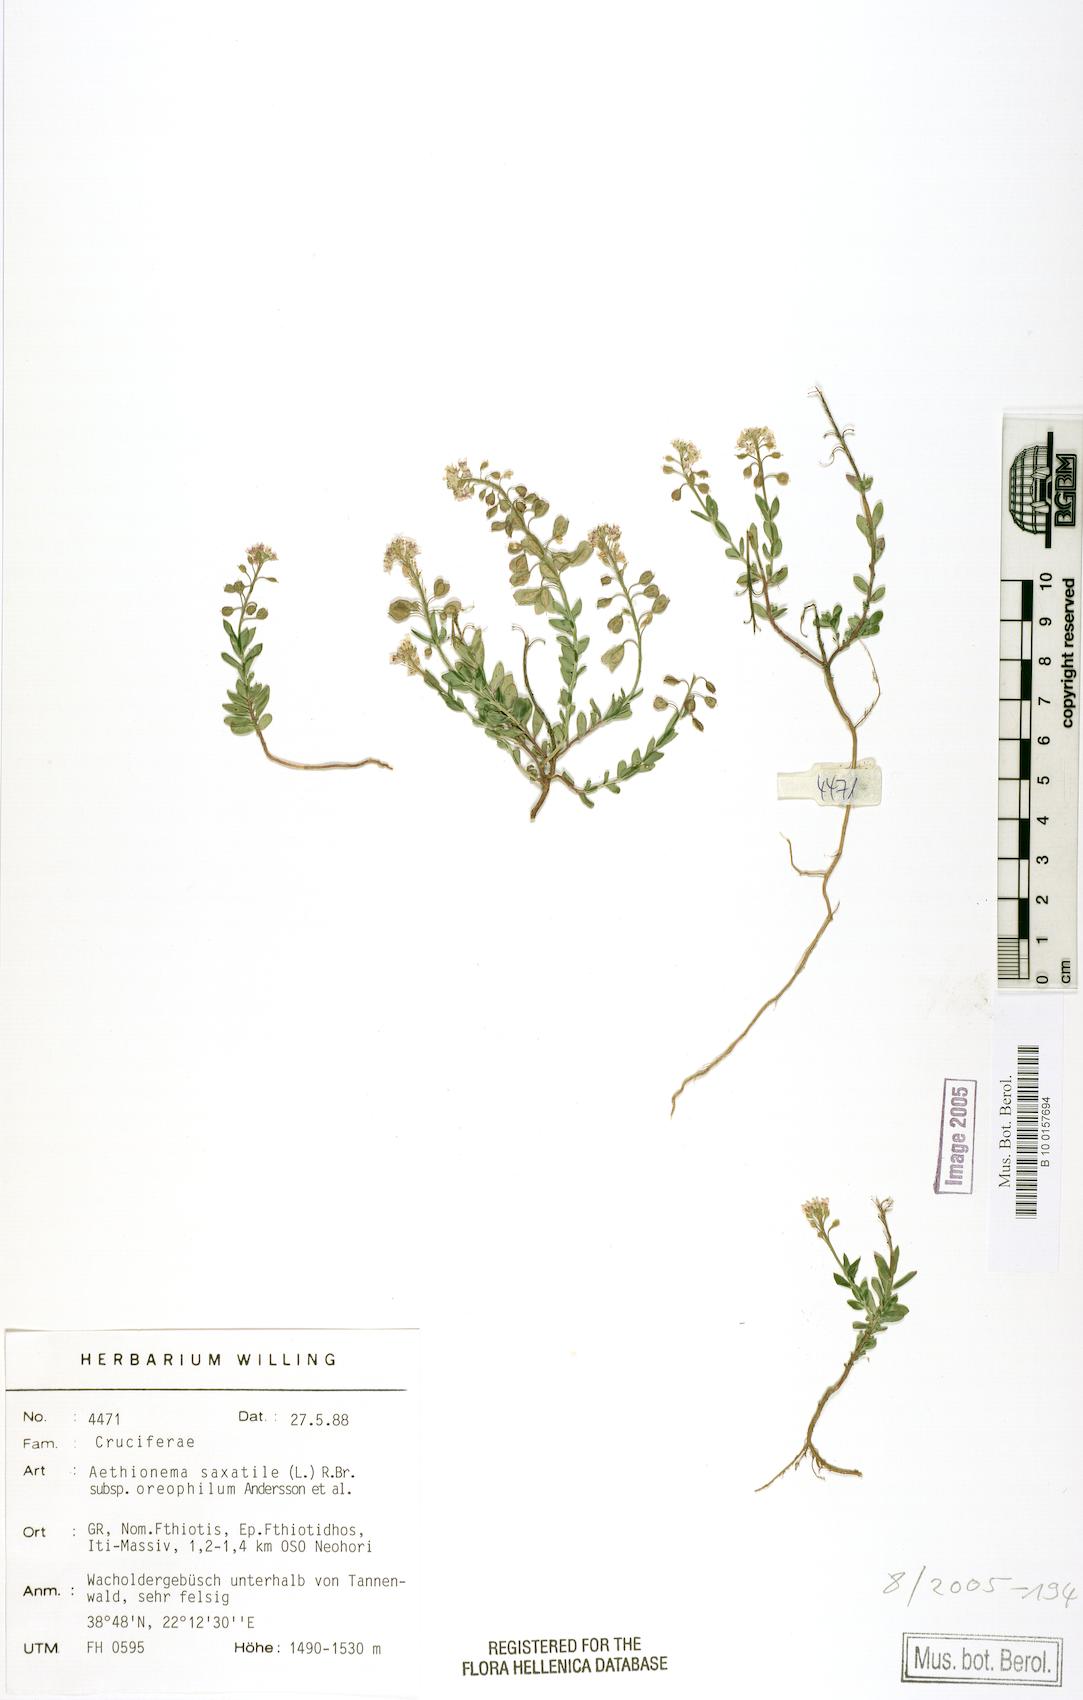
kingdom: Plantae
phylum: Tracheophyta
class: Magnoliopsida
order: Brassicales
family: Brassicaceae
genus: Aethionema
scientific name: Aethionema saxatile
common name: Burnt candytuft
